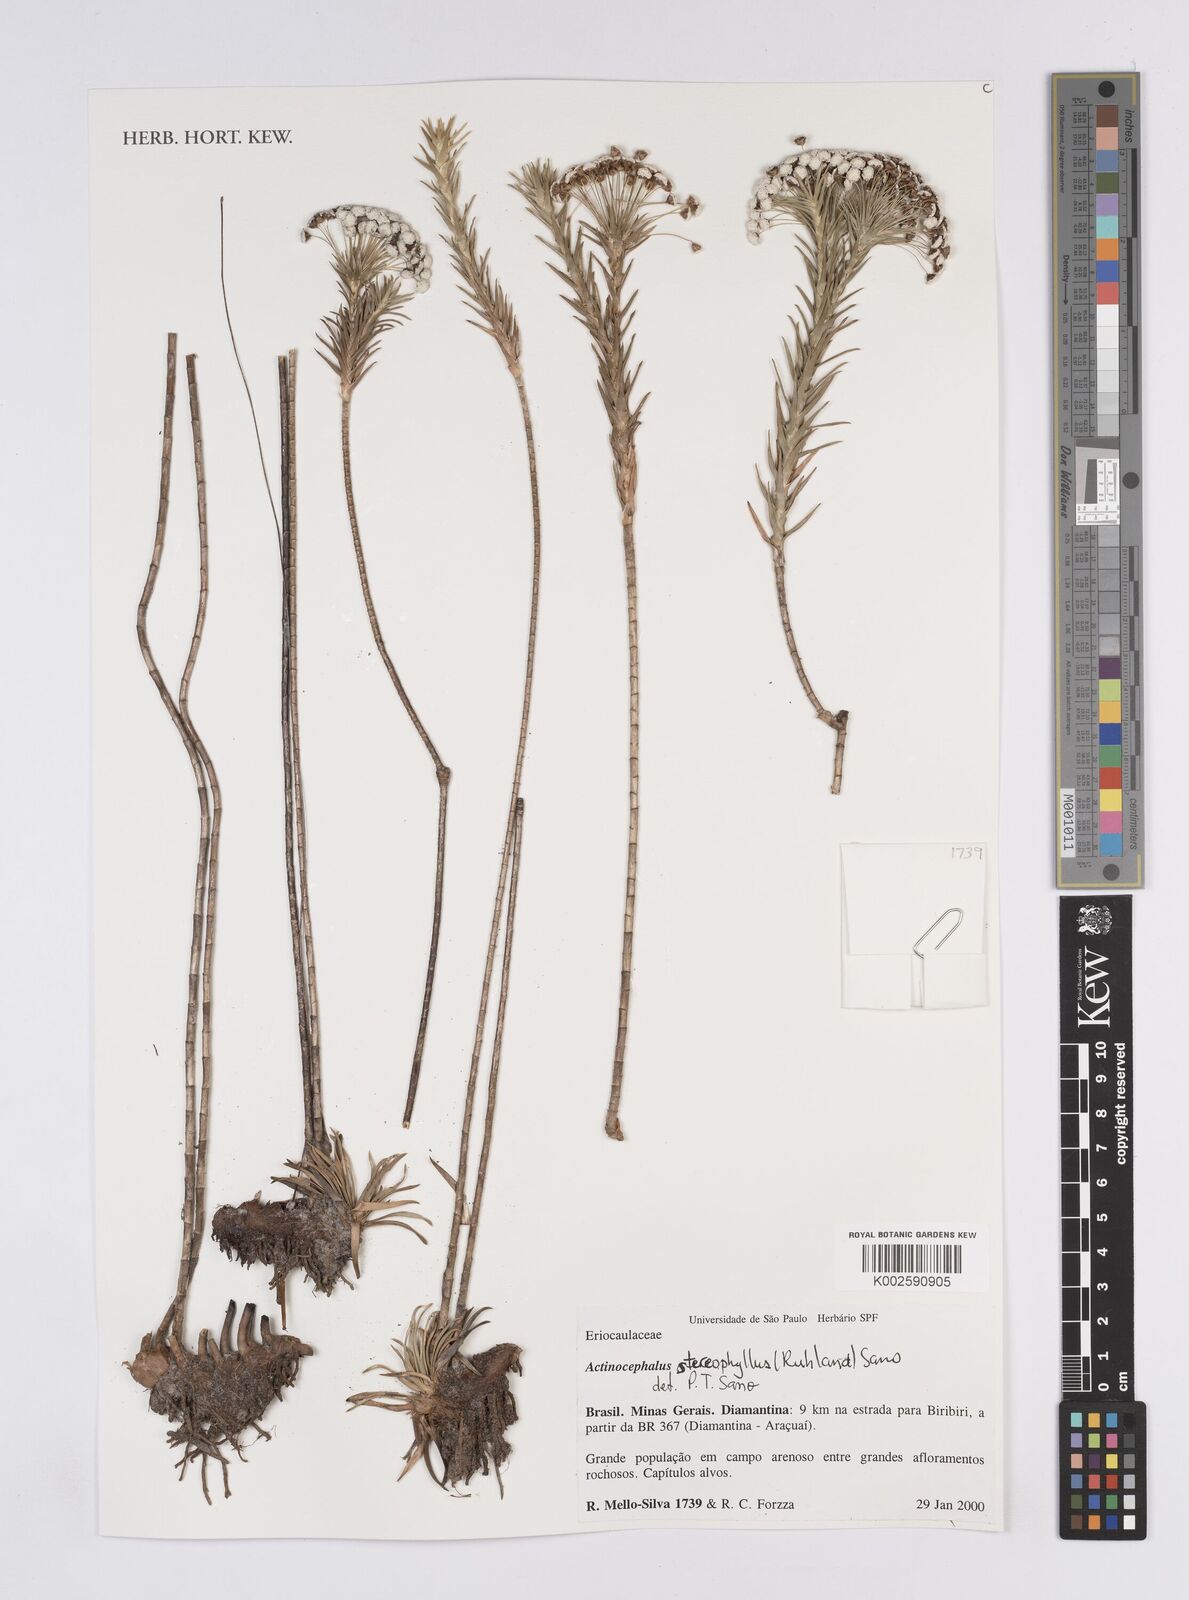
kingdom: Plantae
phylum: Tracheophyta
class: Liliopsida
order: Poales
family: Eriocaulaceae
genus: Paepalanthus
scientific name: Paepalanthus stereophyllus
